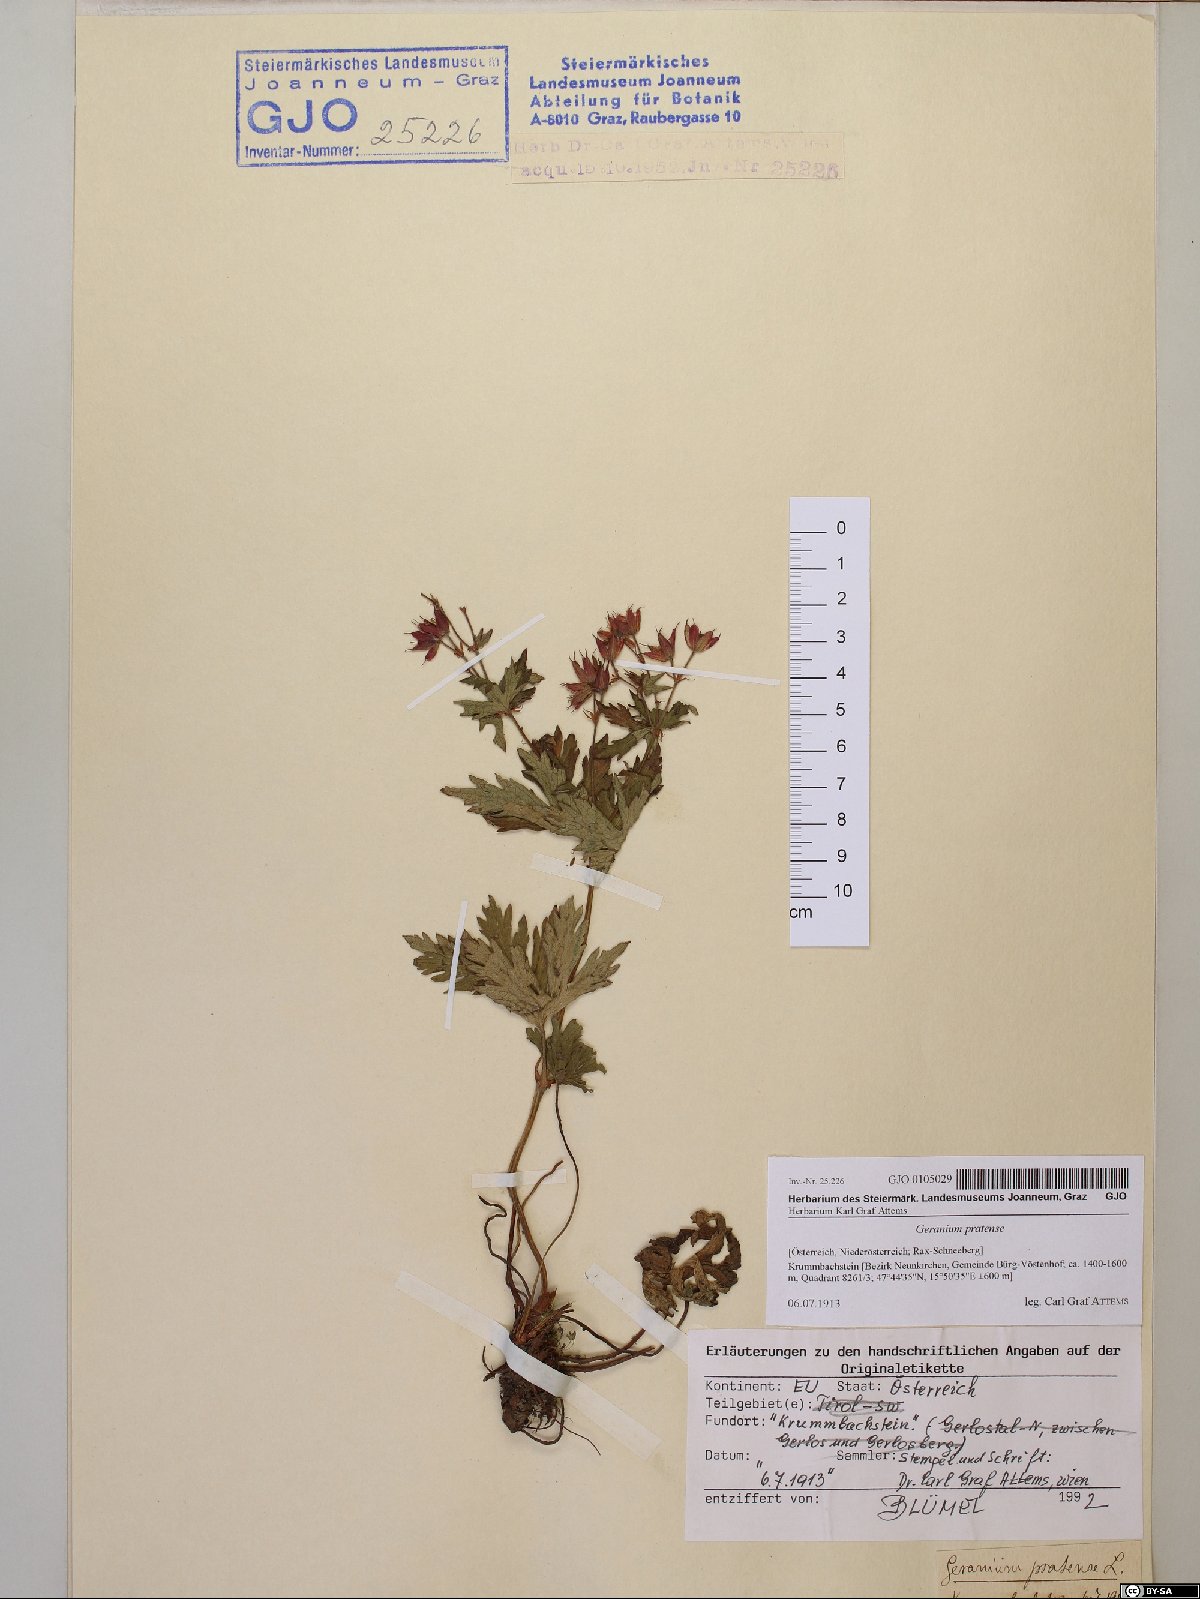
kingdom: Plantae
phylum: Tracheophyta
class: Magnoliopsida
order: Geraniales
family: Geraniaceae
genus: Geranium
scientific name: Geranium pratense
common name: Meadow crane's-bill
